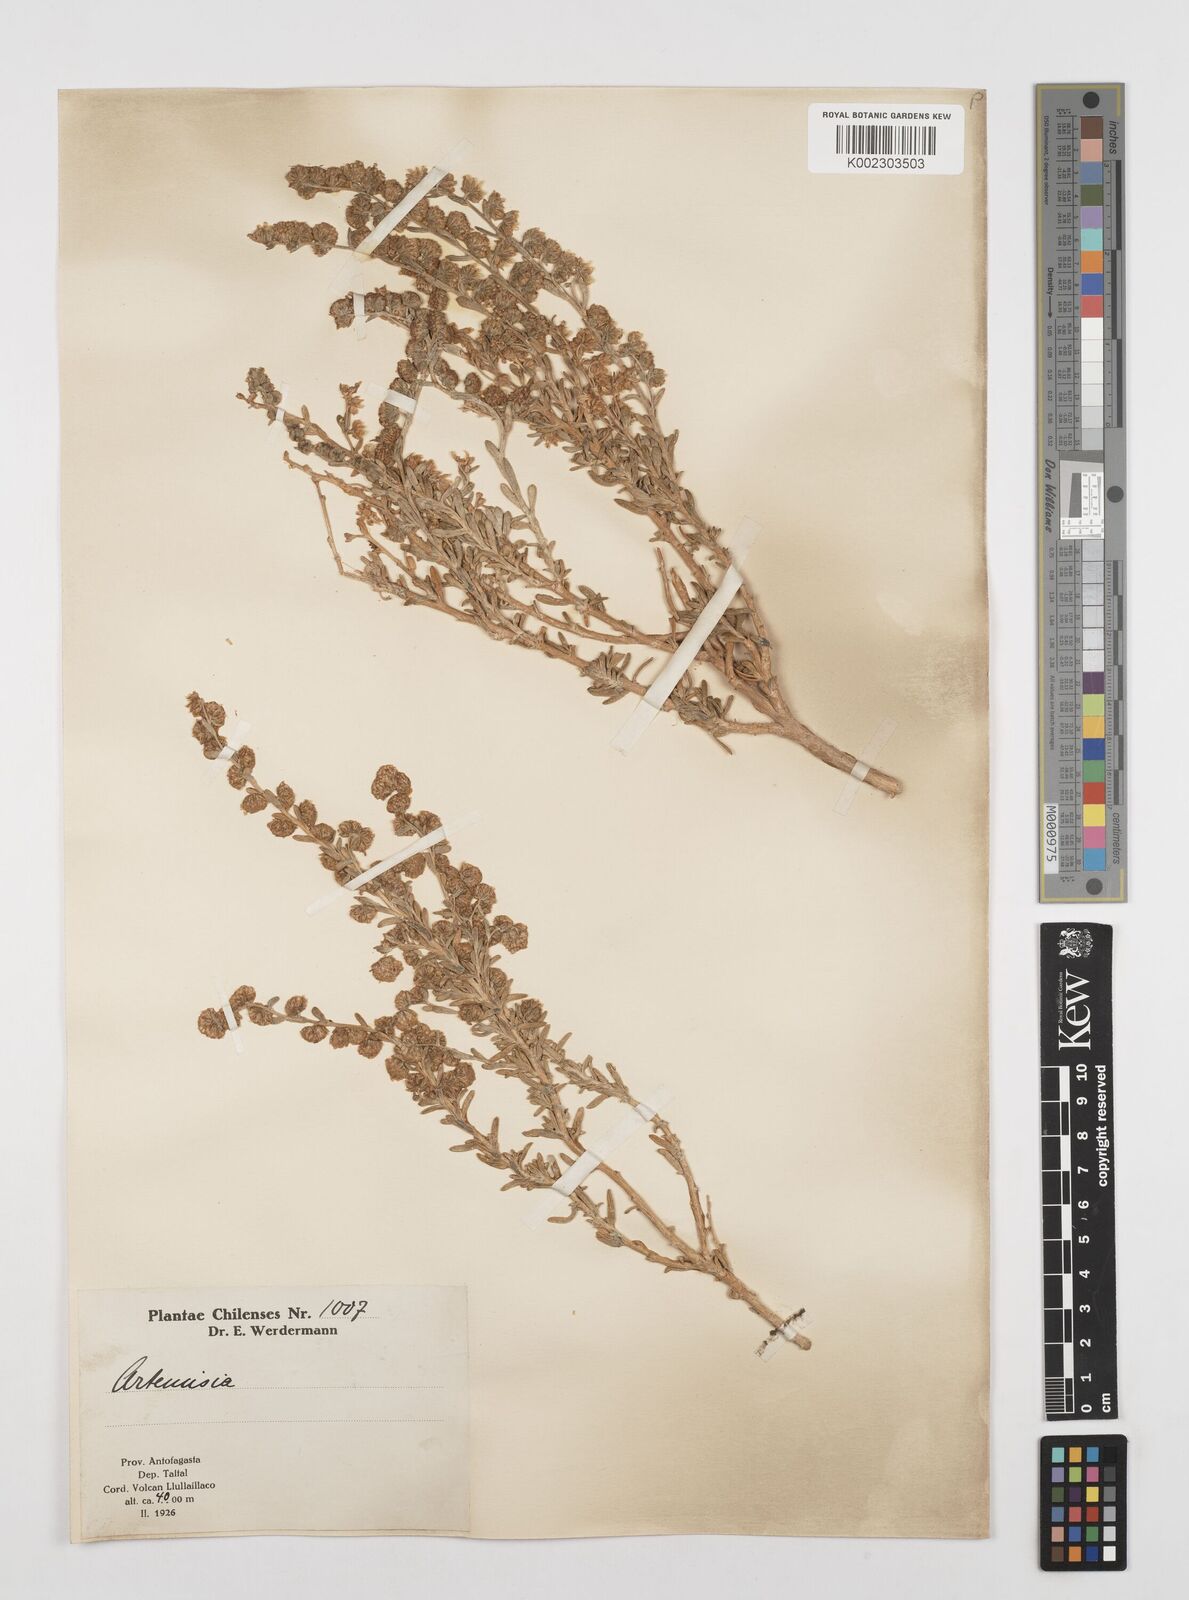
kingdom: Plantae
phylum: Tracheophyta
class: Magnoliopsida
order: Asterales
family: Asteraceae
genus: Artemisia
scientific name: Artemisia copa
